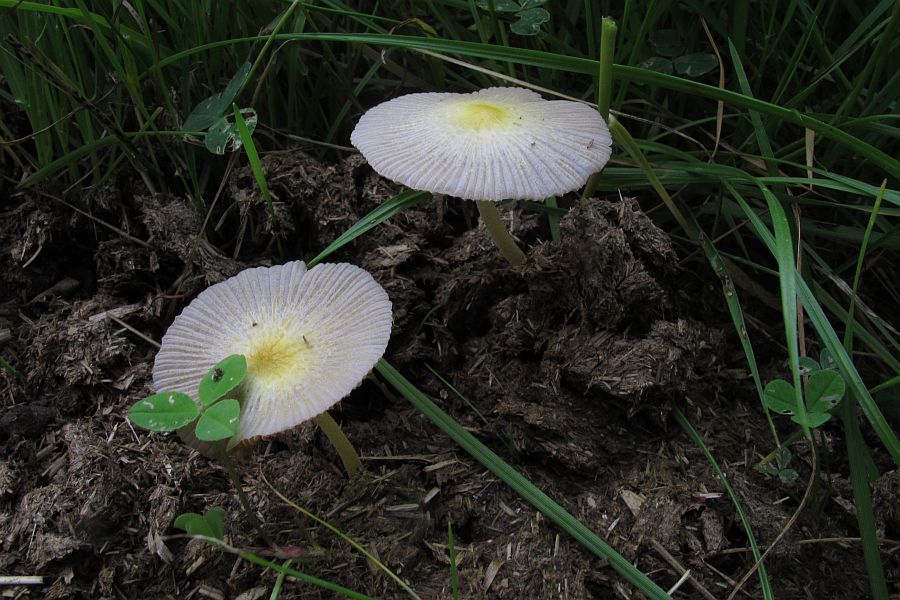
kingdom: Fungi
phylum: Basidiomycota
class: Agaricomycetes
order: Agaricales
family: Bolbitiaceae
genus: Bolbitius
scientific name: Bolbitius titubans
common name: almindelig gulhat
